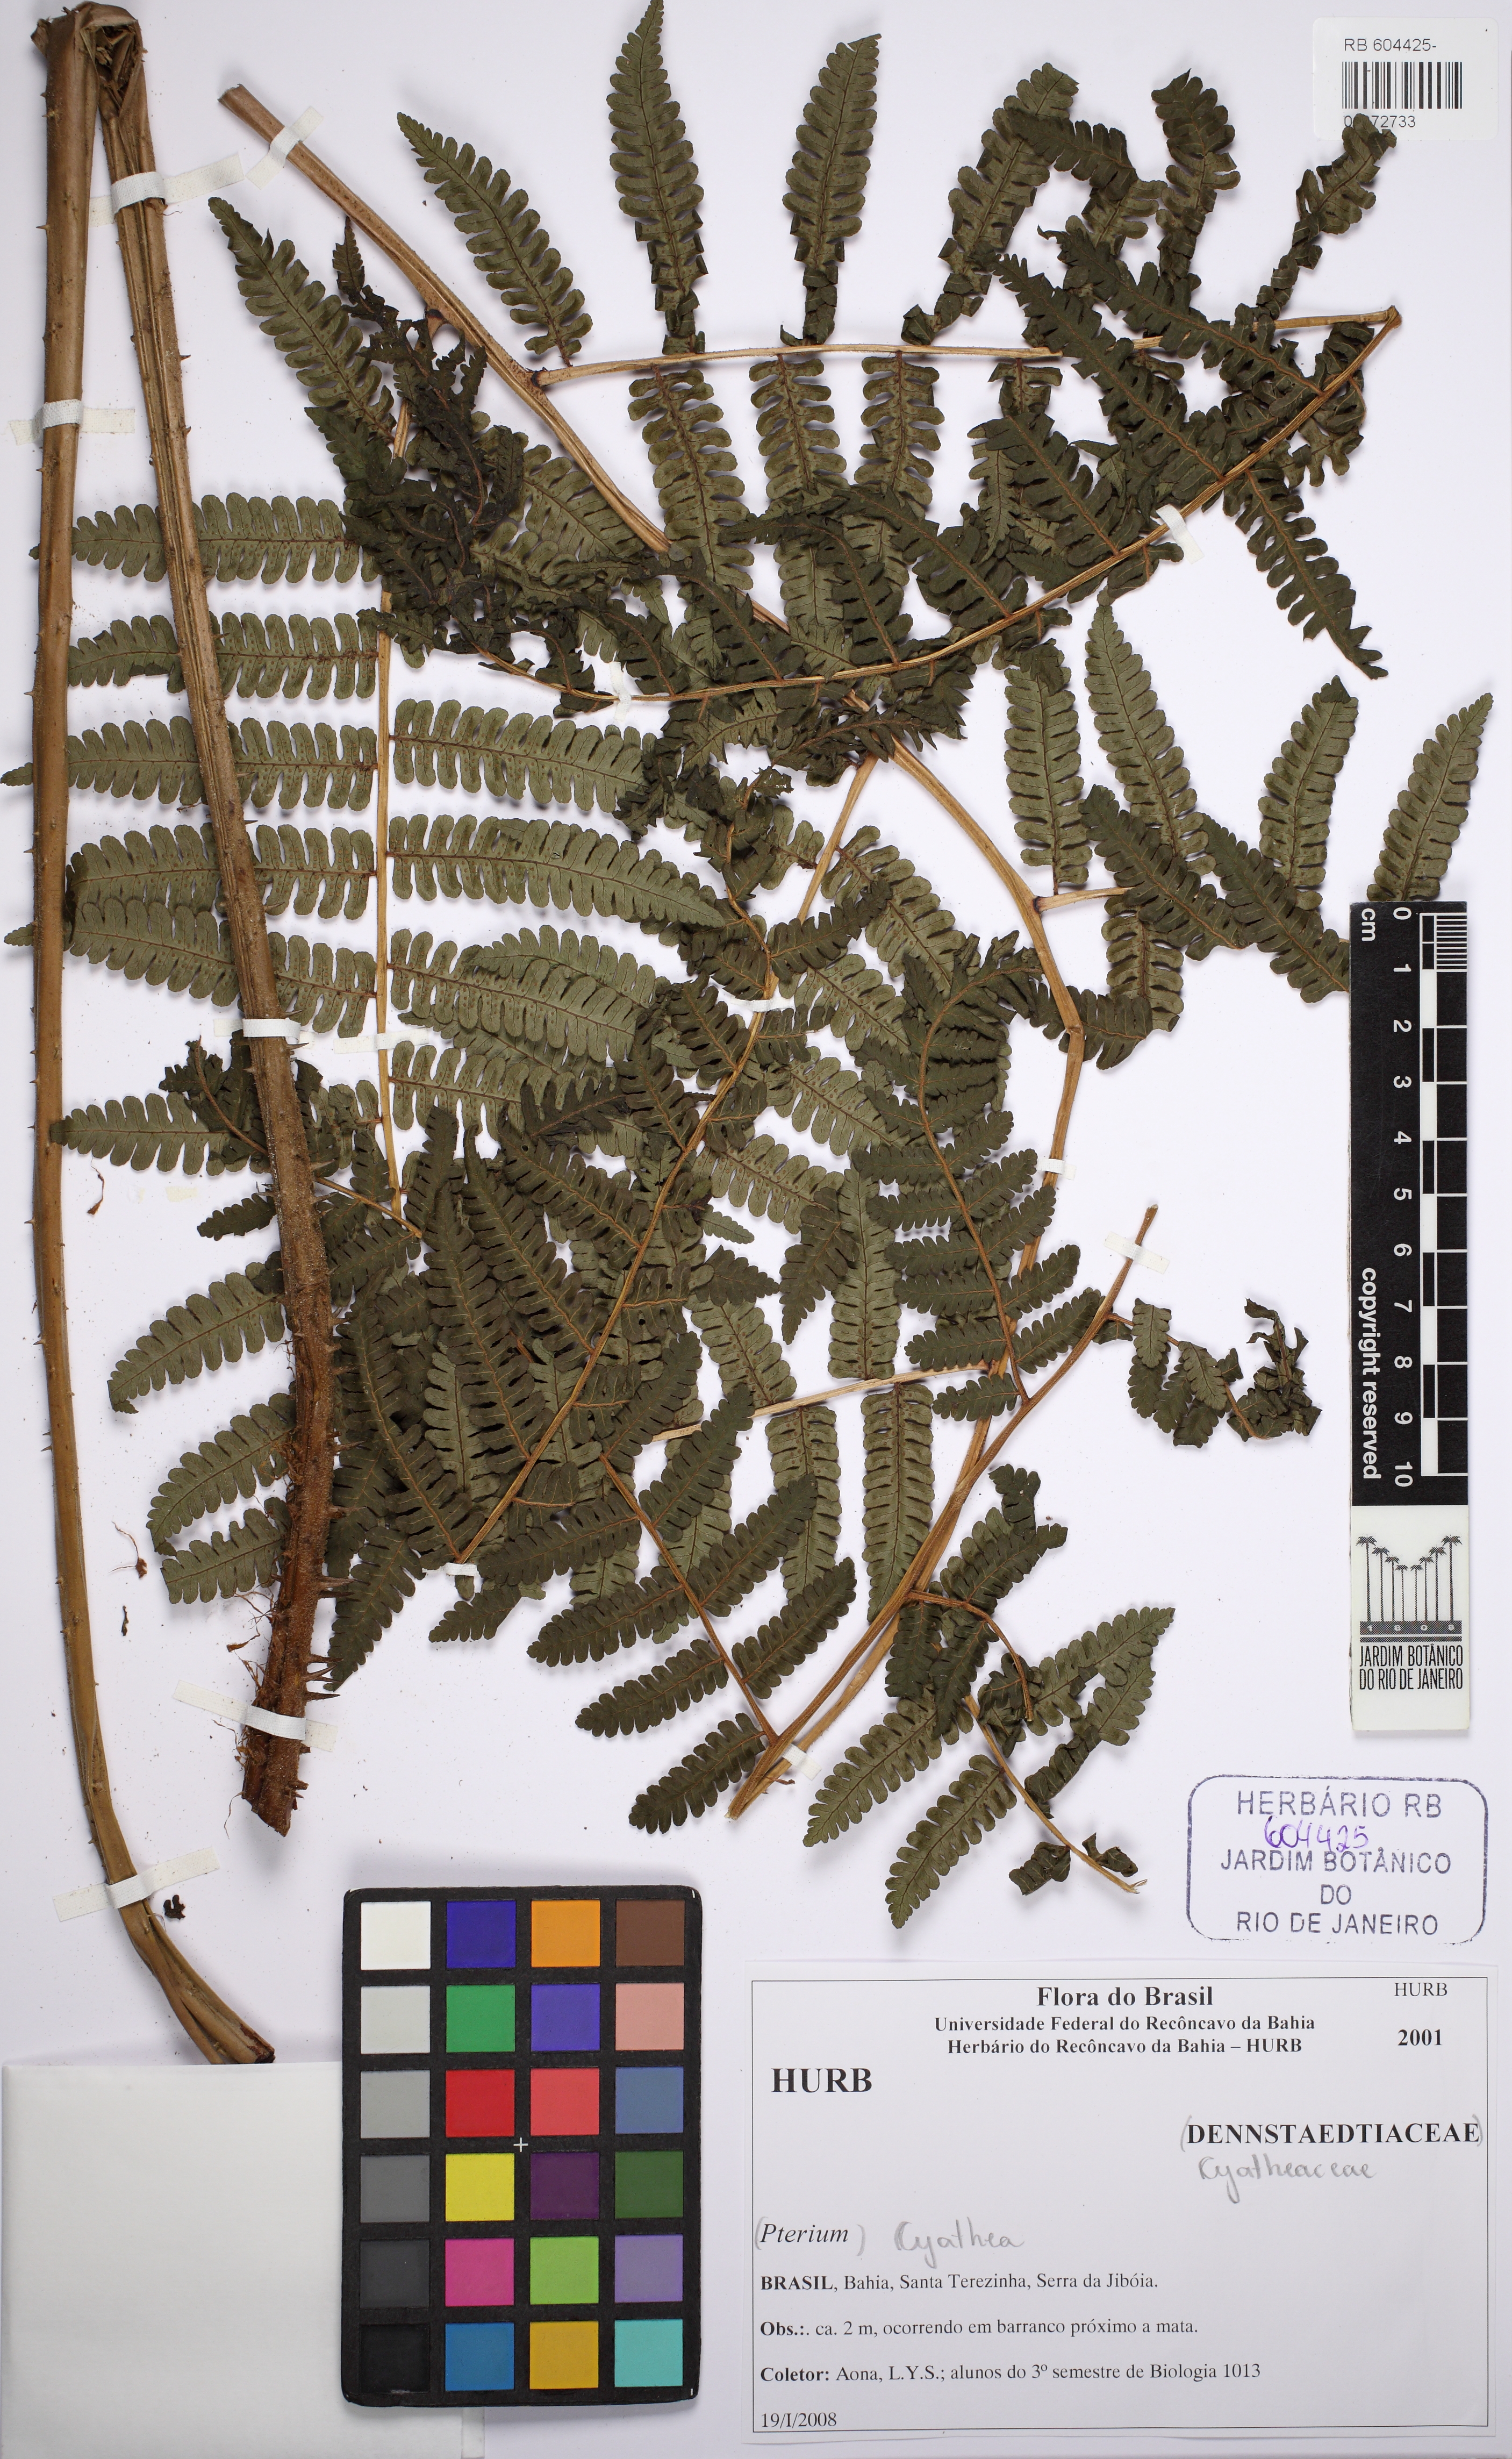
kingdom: Plantae
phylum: Tracheophyta
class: Polypodiopsida
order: Cyatheales
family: Cyatheaceae
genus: Cyathea
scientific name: Cyathea
